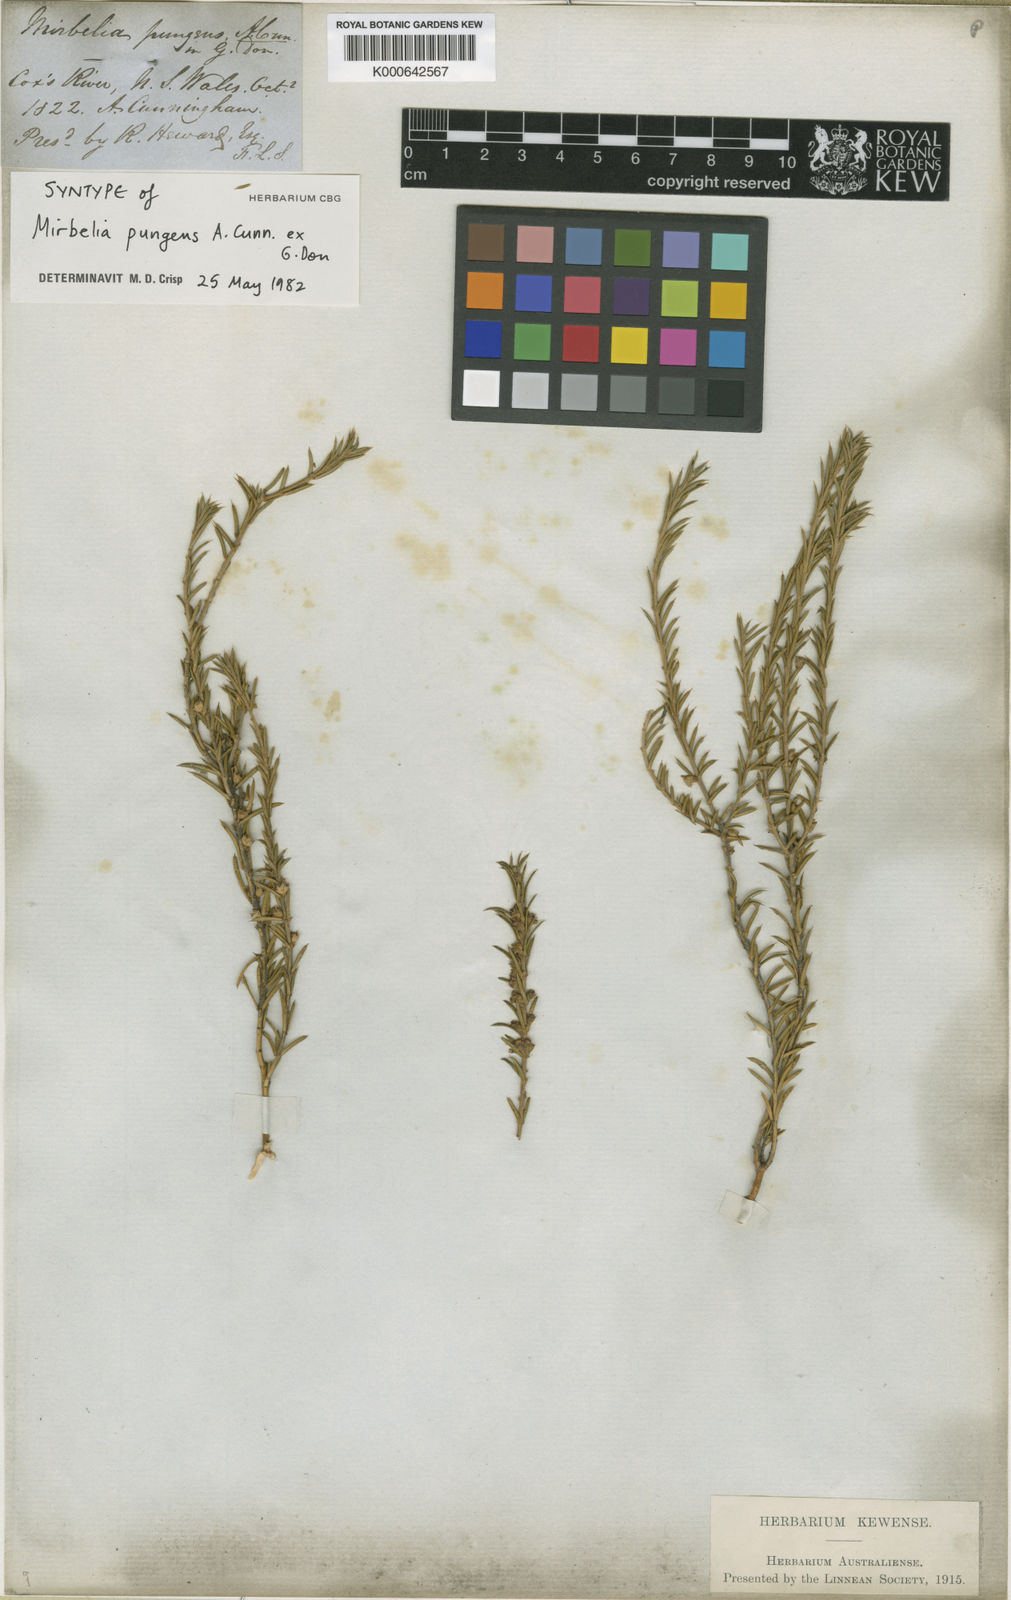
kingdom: Plantae
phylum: Tracheophyta
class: Magnoliopsida
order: Fabales
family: Fabaceae
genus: Mirbelia
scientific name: Mirbelia pungens
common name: Prickly mirbelia
